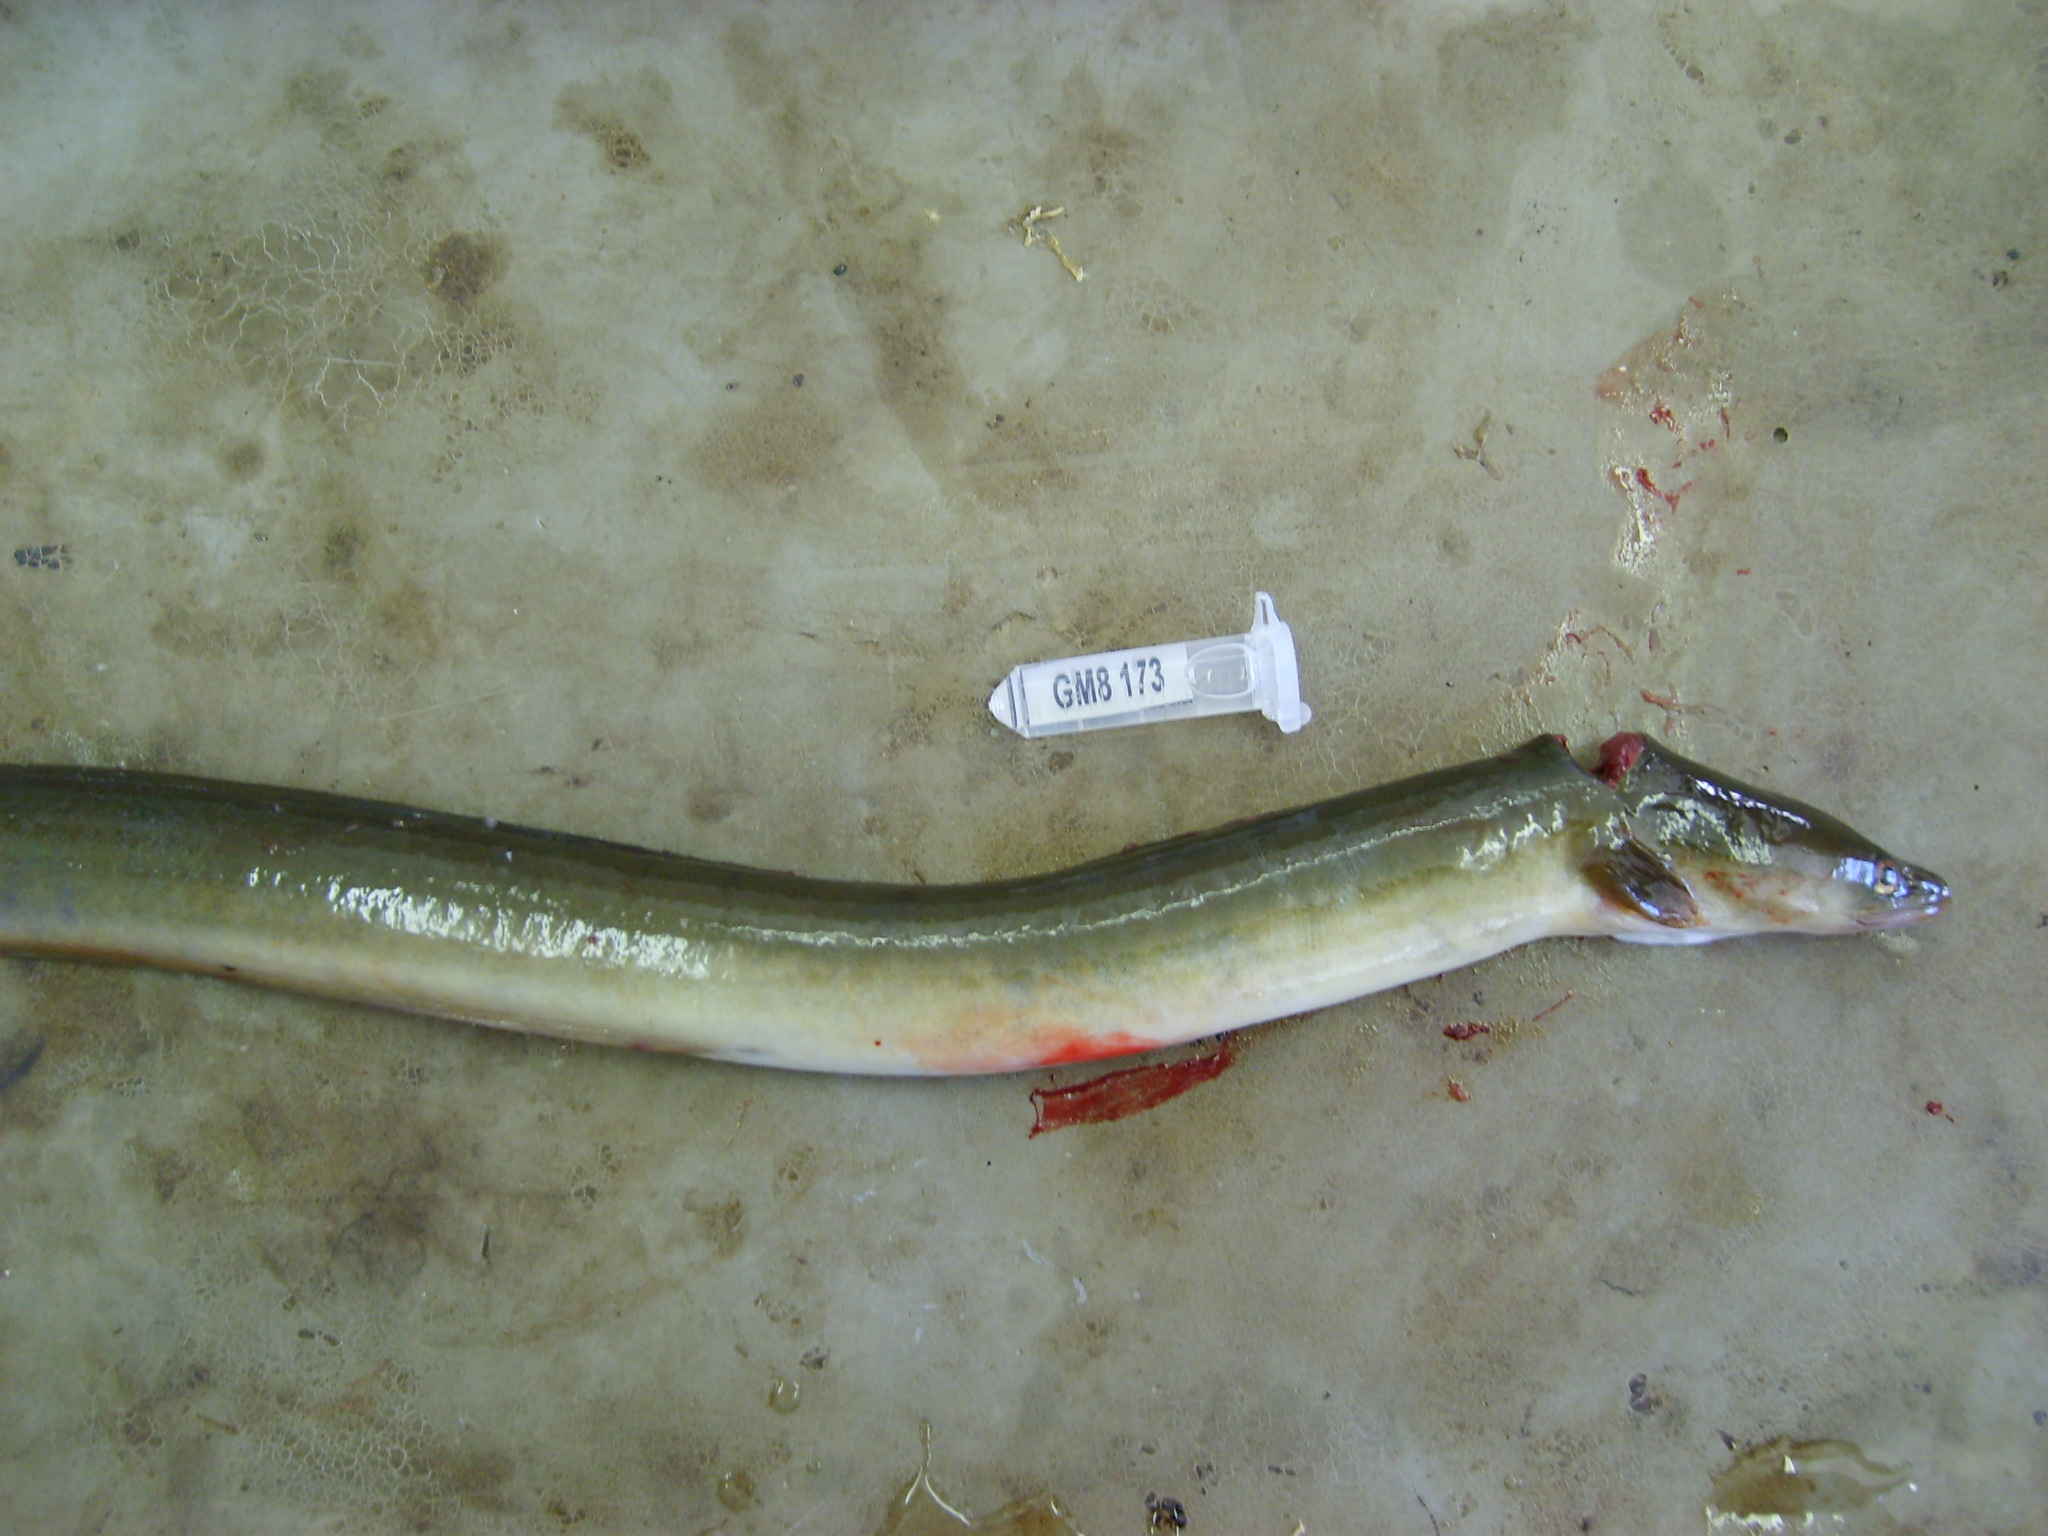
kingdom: Animalia
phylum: Chordata
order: Anguilliformes
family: Anguillidae
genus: Anguilla
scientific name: Anguilla mossambica
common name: African longfin eel
